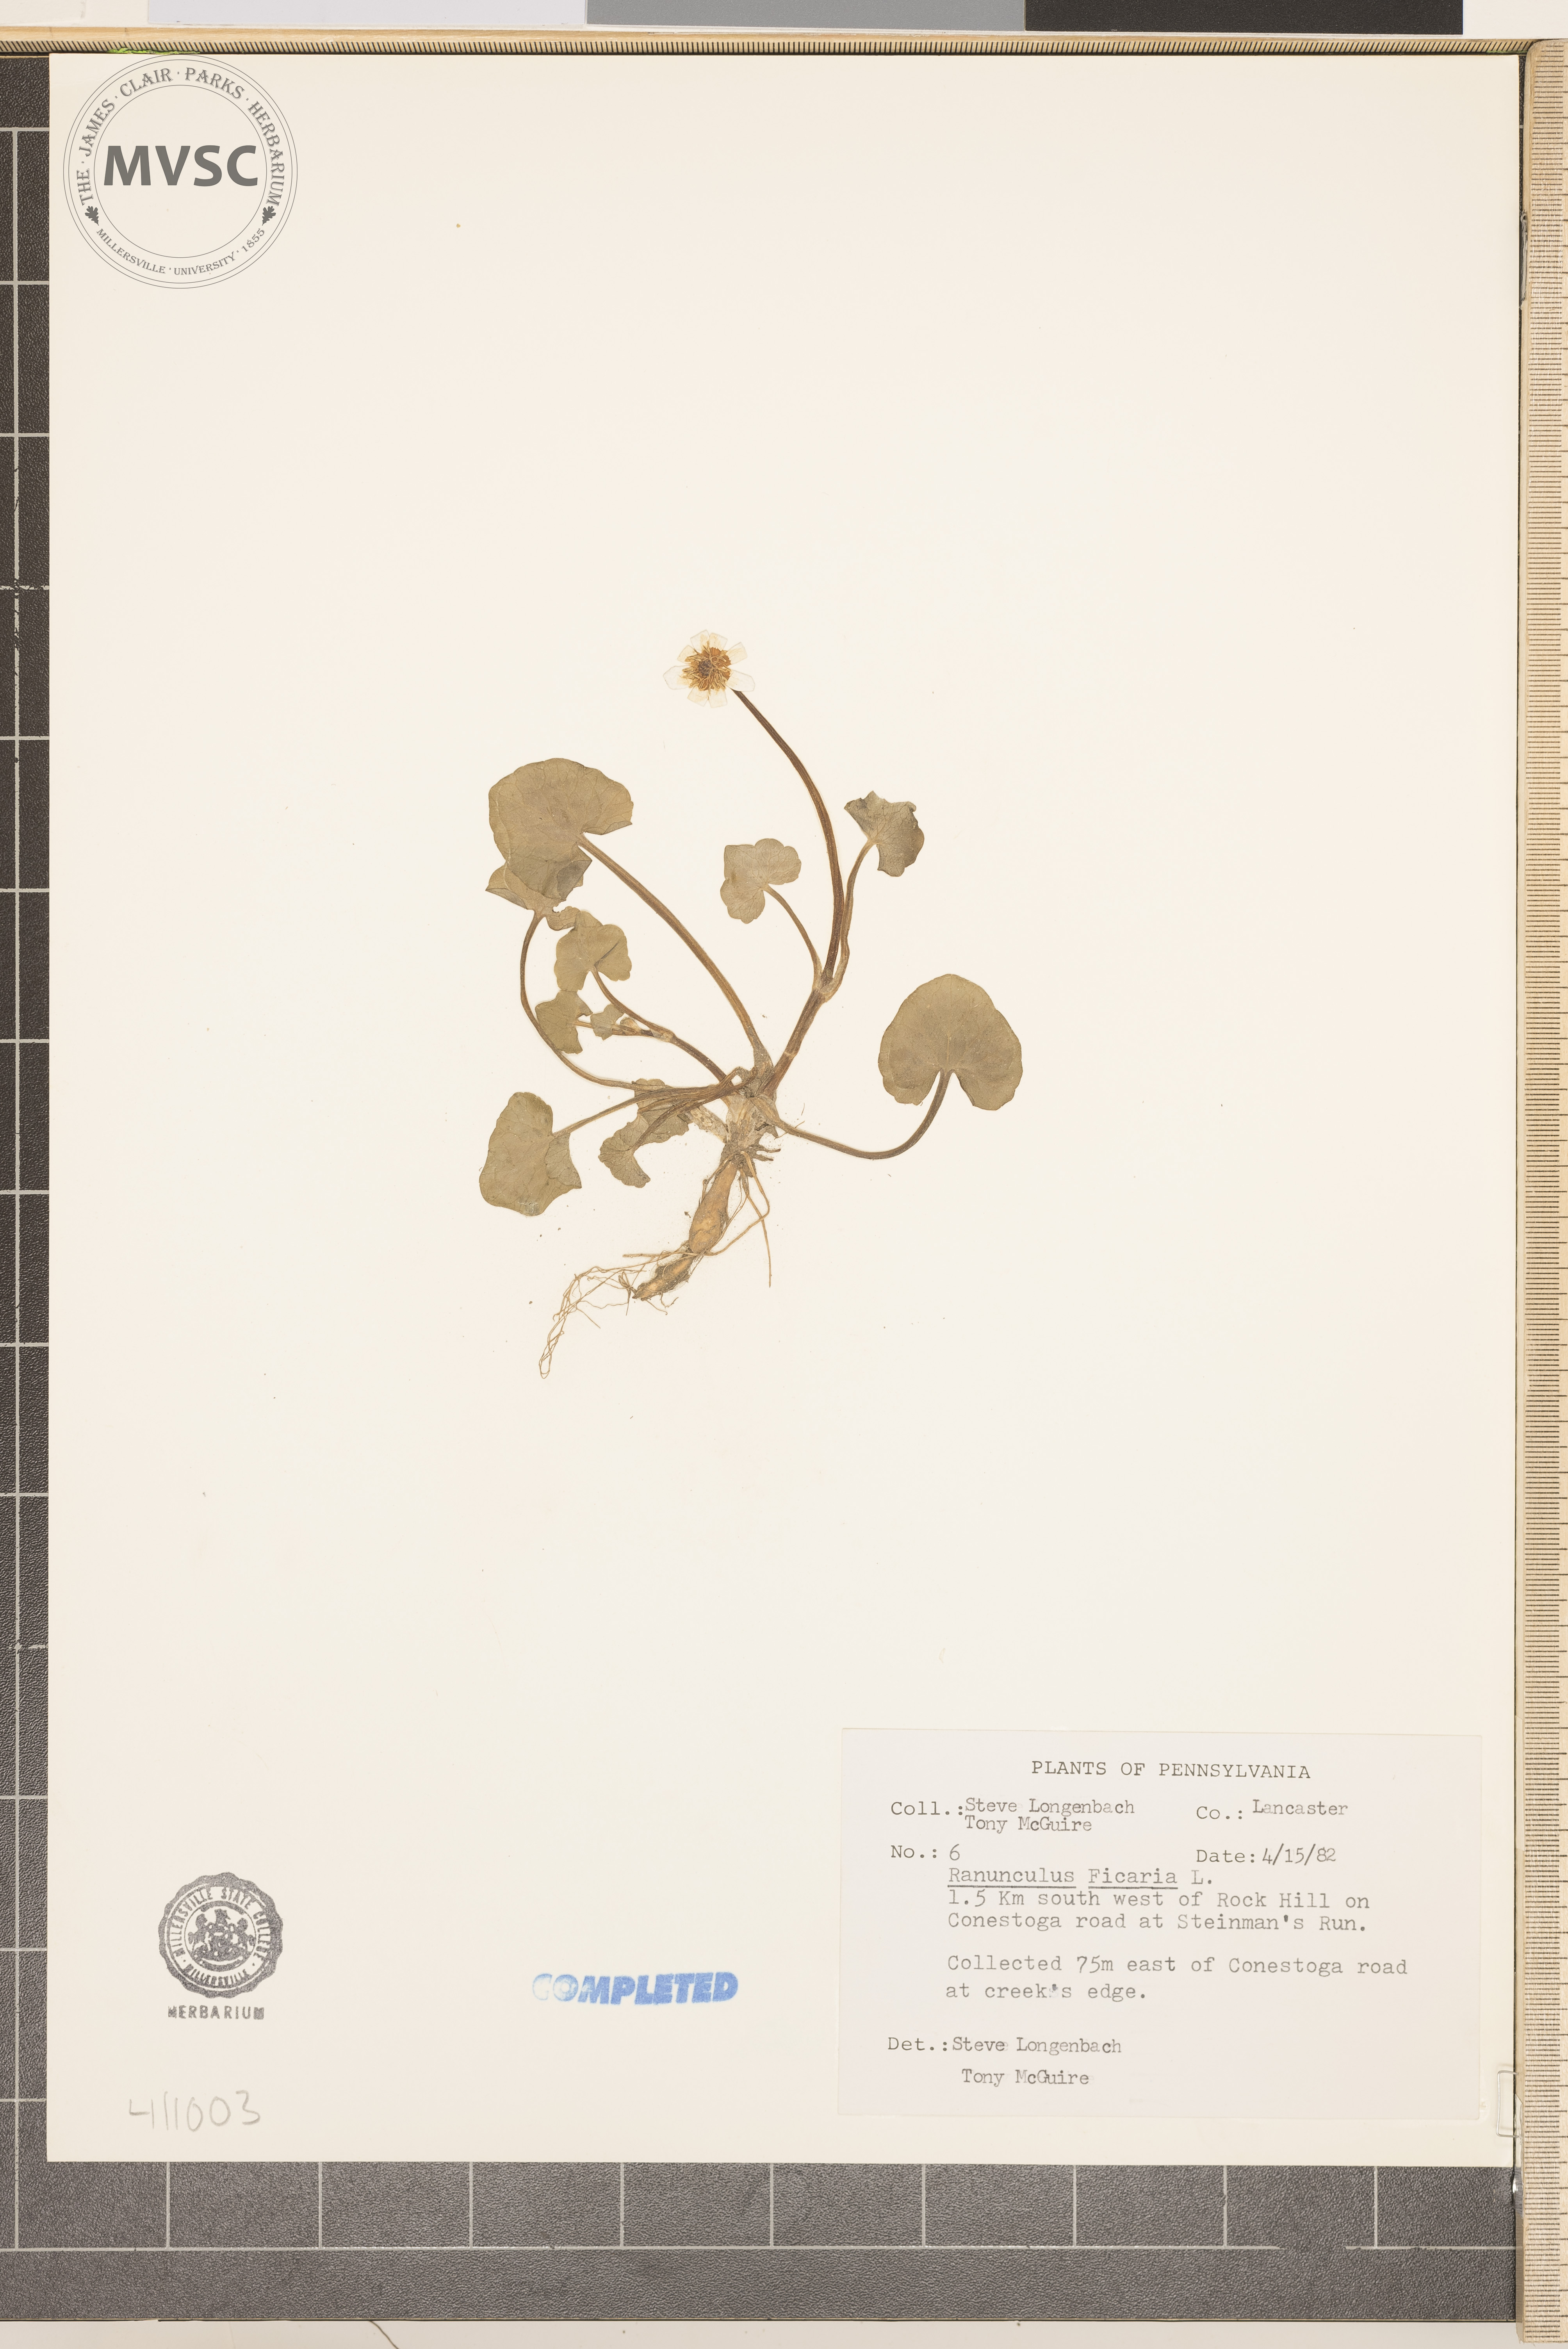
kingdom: Plantae
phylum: Tracheophyta
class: Magnoliopsida
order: Ranunculales
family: Ranunculaceae
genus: Ranunculus
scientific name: Ranunculus ficaria
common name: fig buttercup
